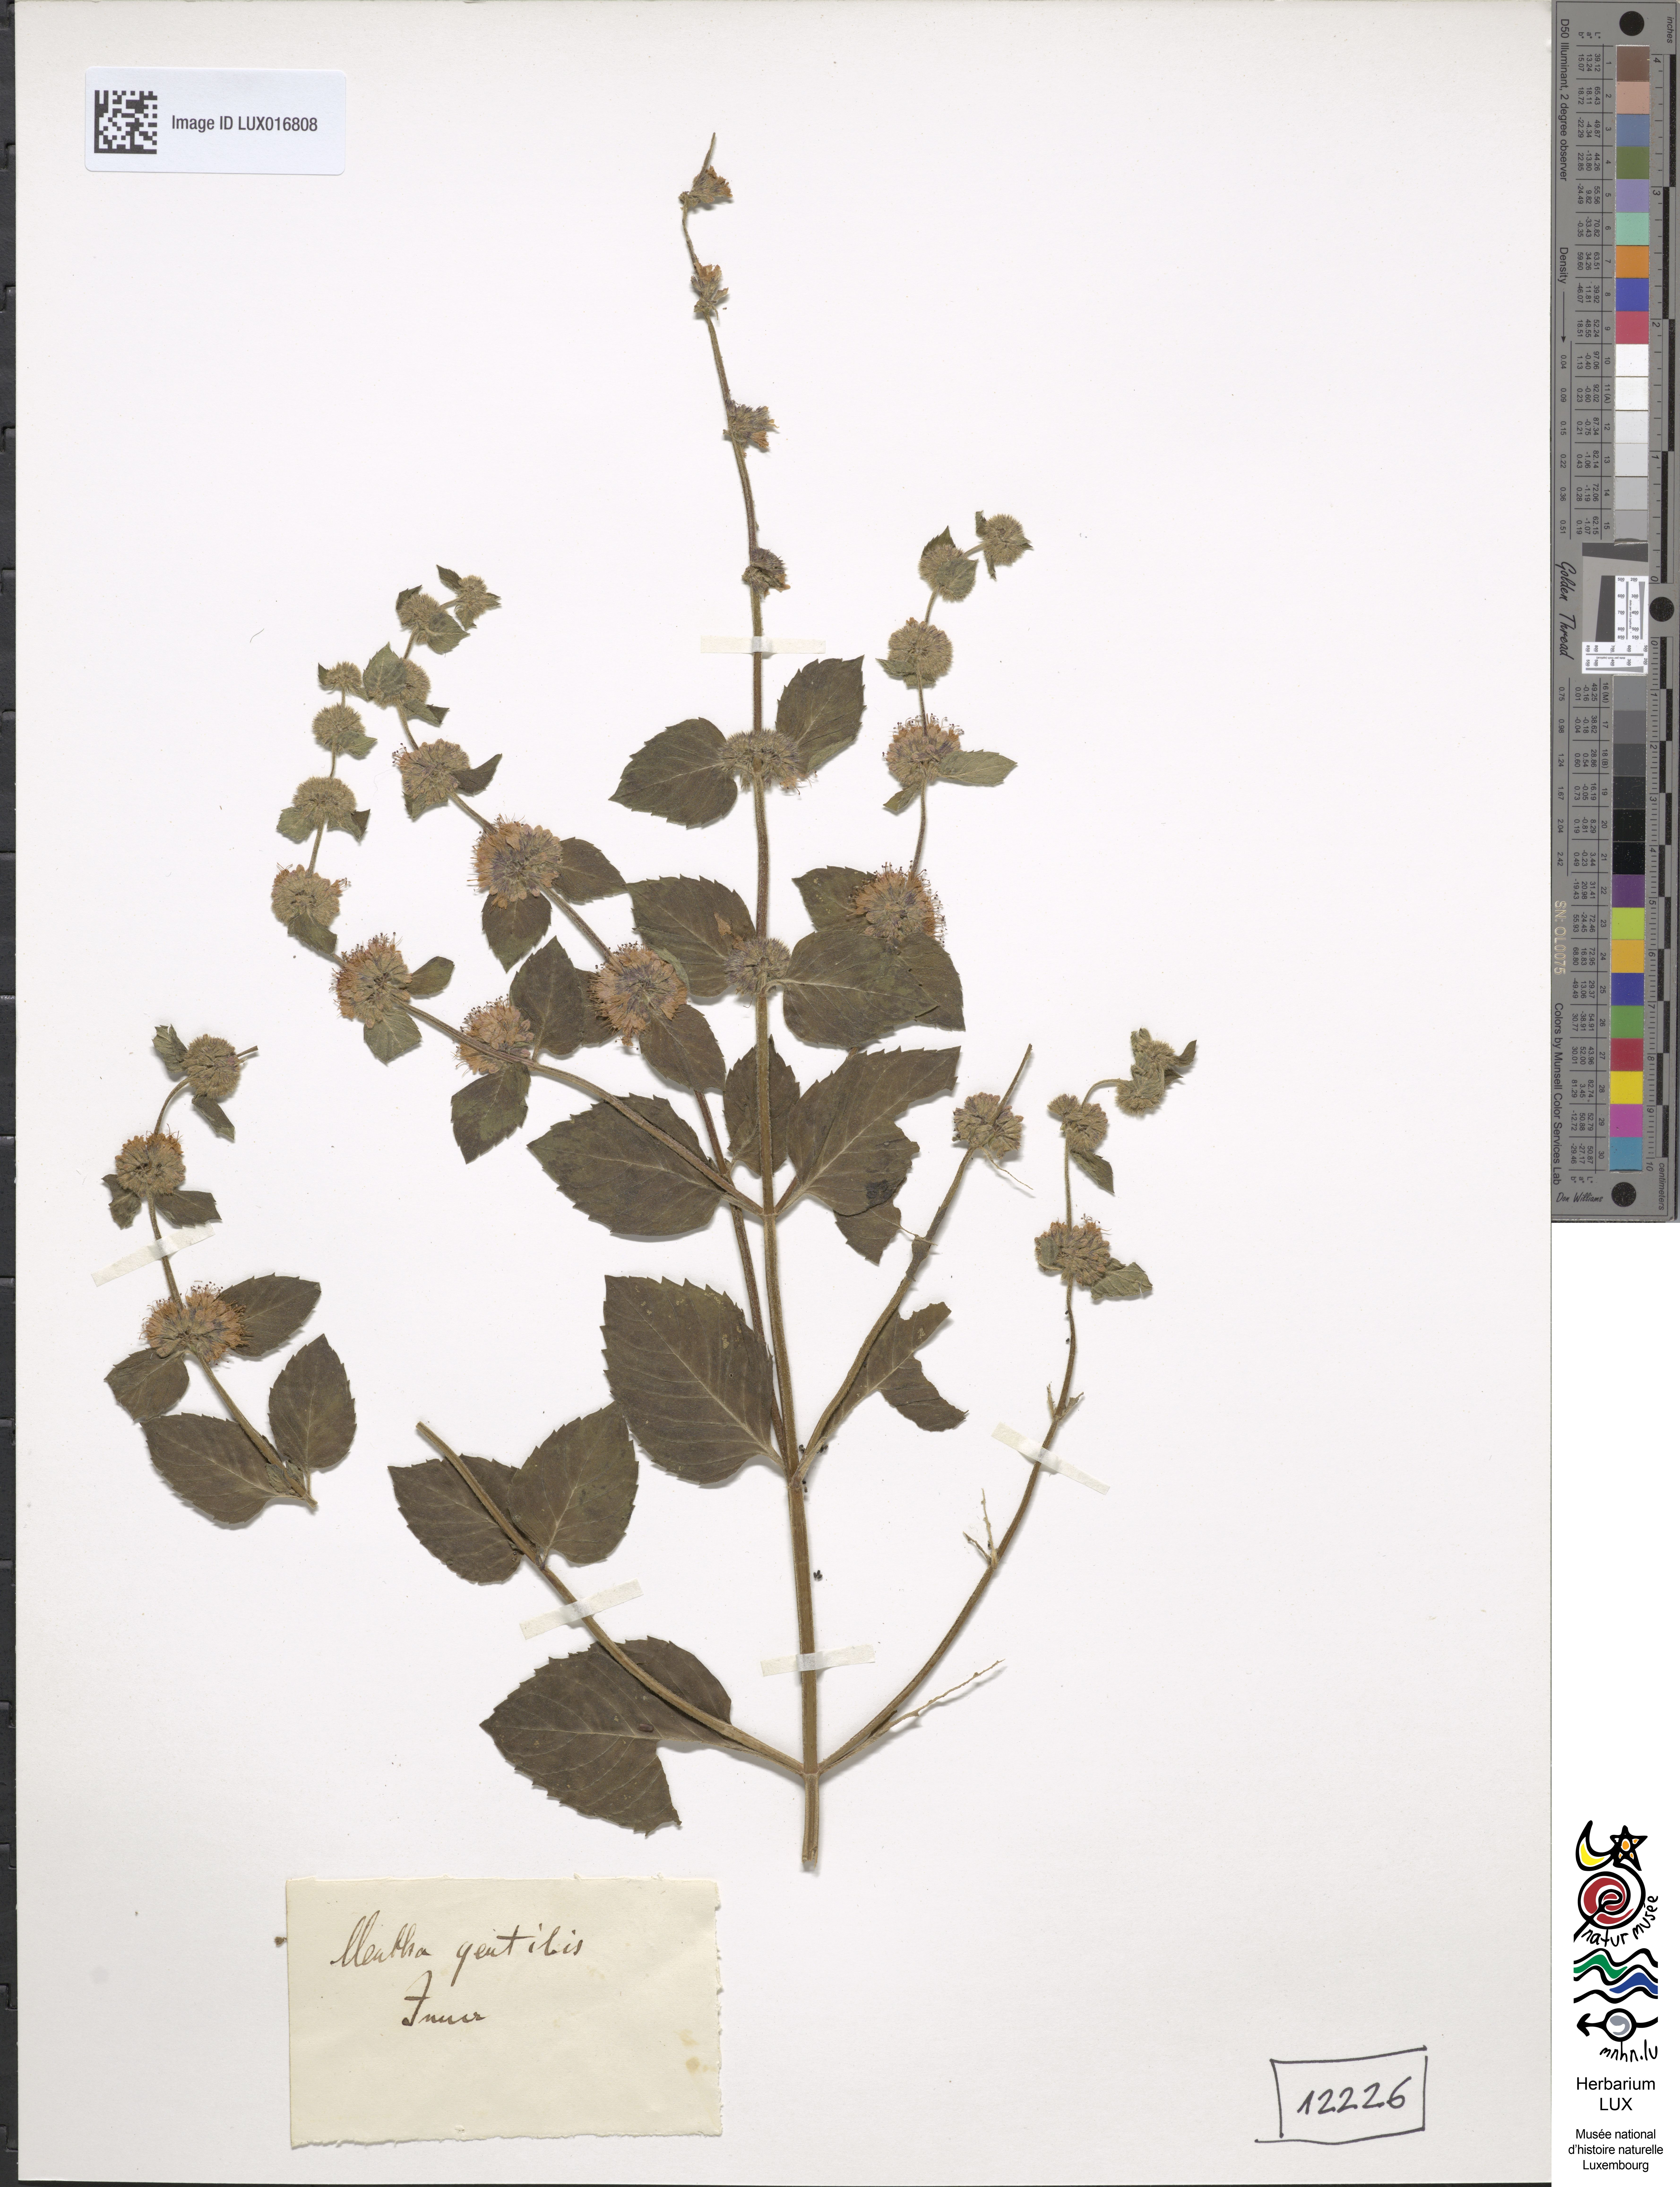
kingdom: Plantae
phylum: Tracheophyta
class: Magnoliopsida
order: Lamiales
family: Lamiaceae
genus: Mentha
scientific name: Mentha verticillata
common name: Mint
